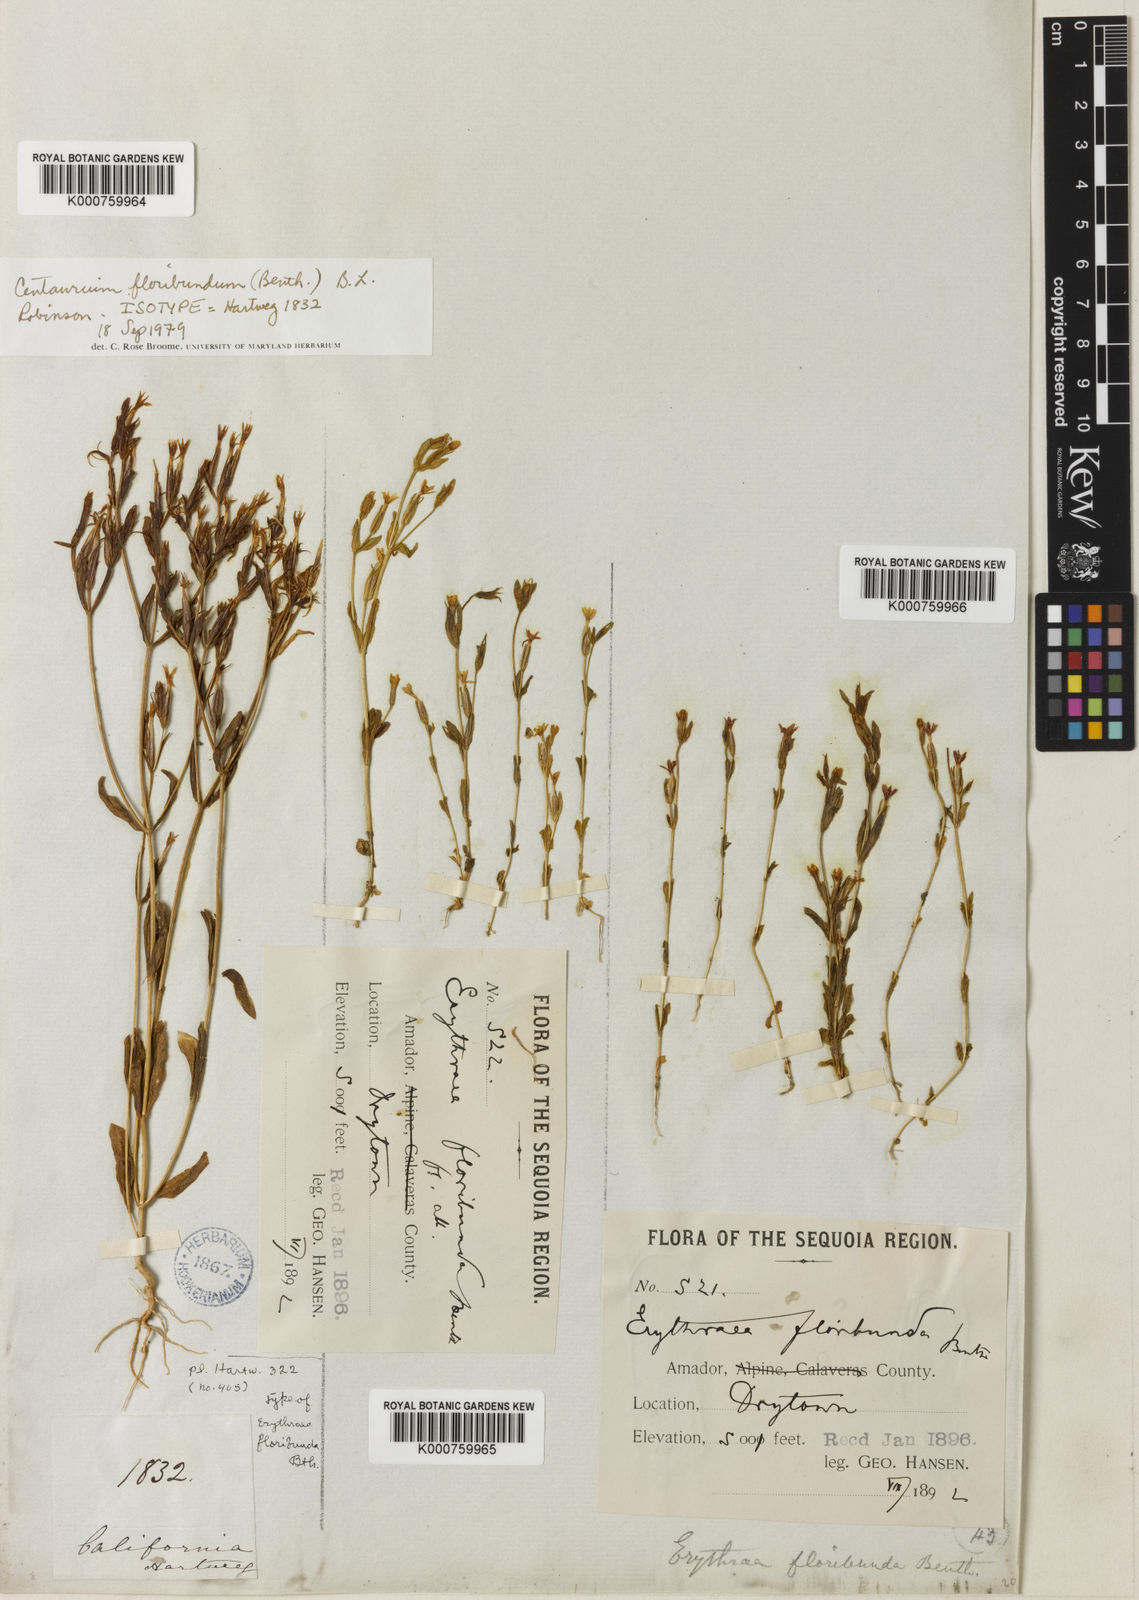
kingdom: Plantae
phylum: Tracheophyta
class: Magnoliopsida
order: Gentianales
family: Gentianaceae
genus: Zeltnera
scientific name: Zeltnera muhlenbergii
